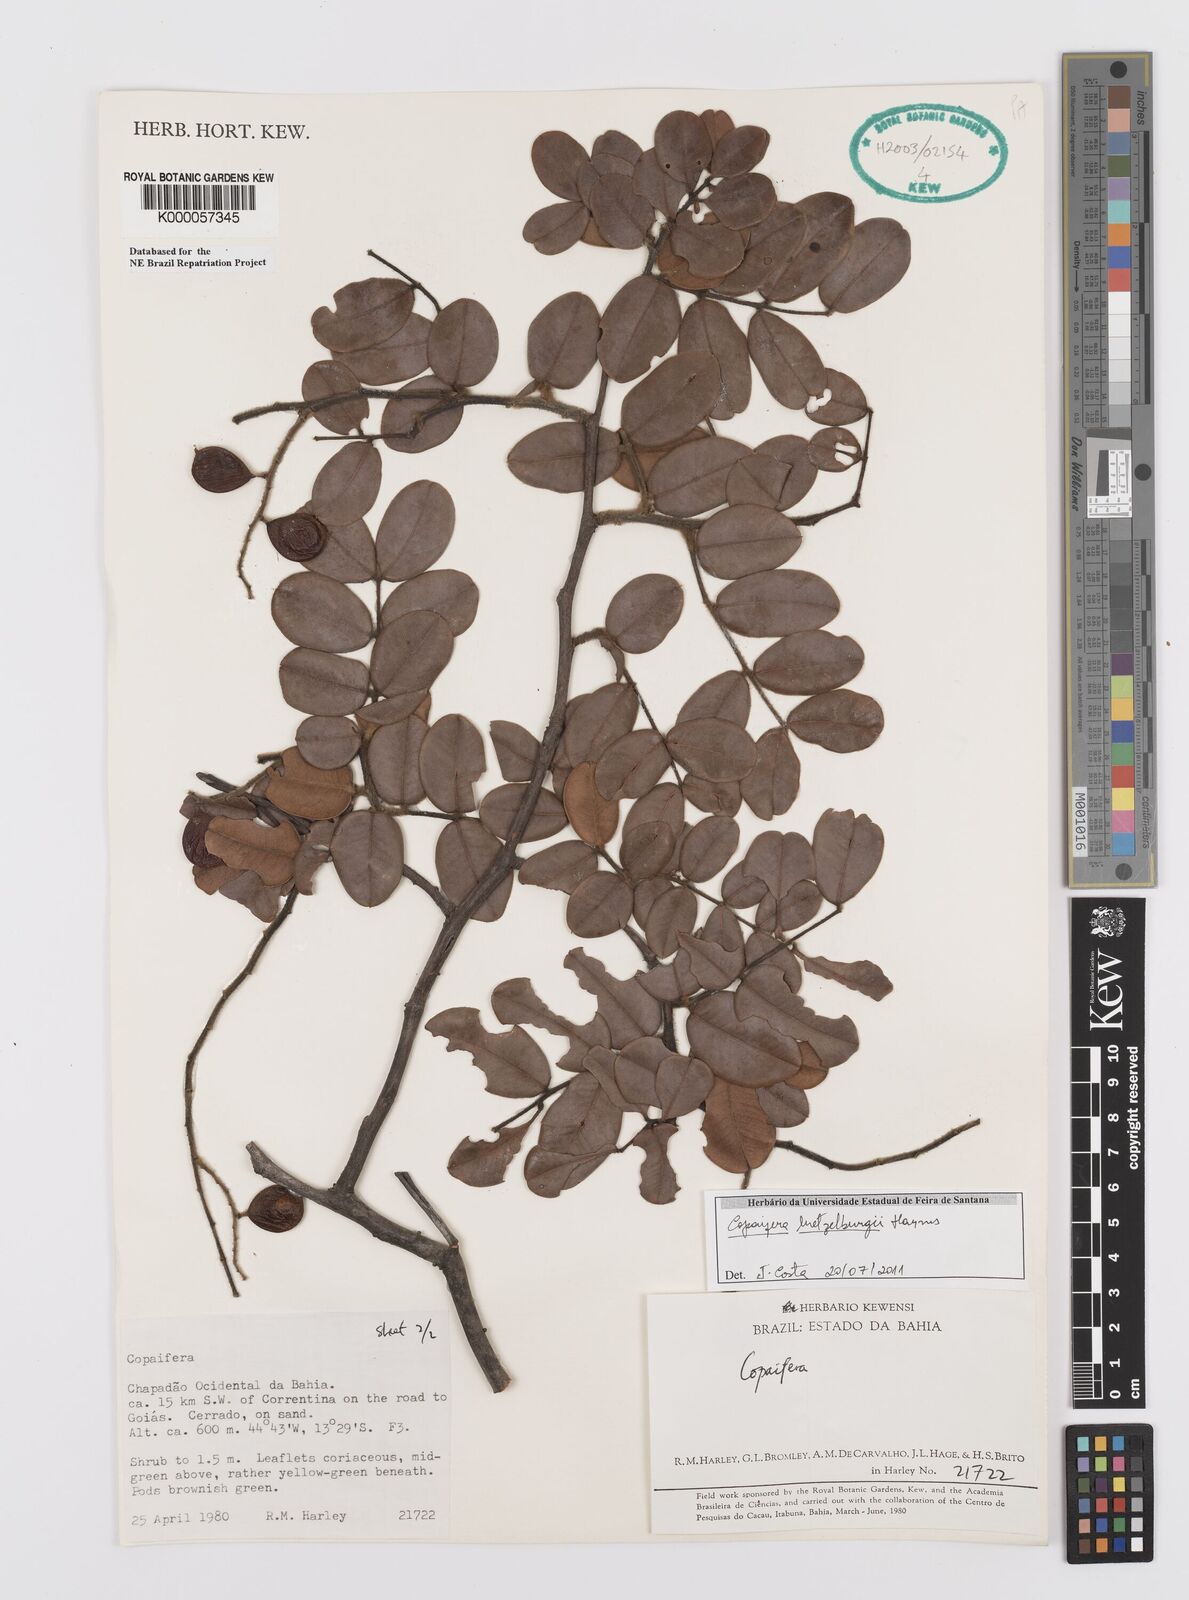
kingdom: Plantae
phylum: Tracheophyta
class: Magnoliopsida
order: Fabales
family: Fabaceae
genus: Copaifera
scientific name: Copaifera luetzelburgii
